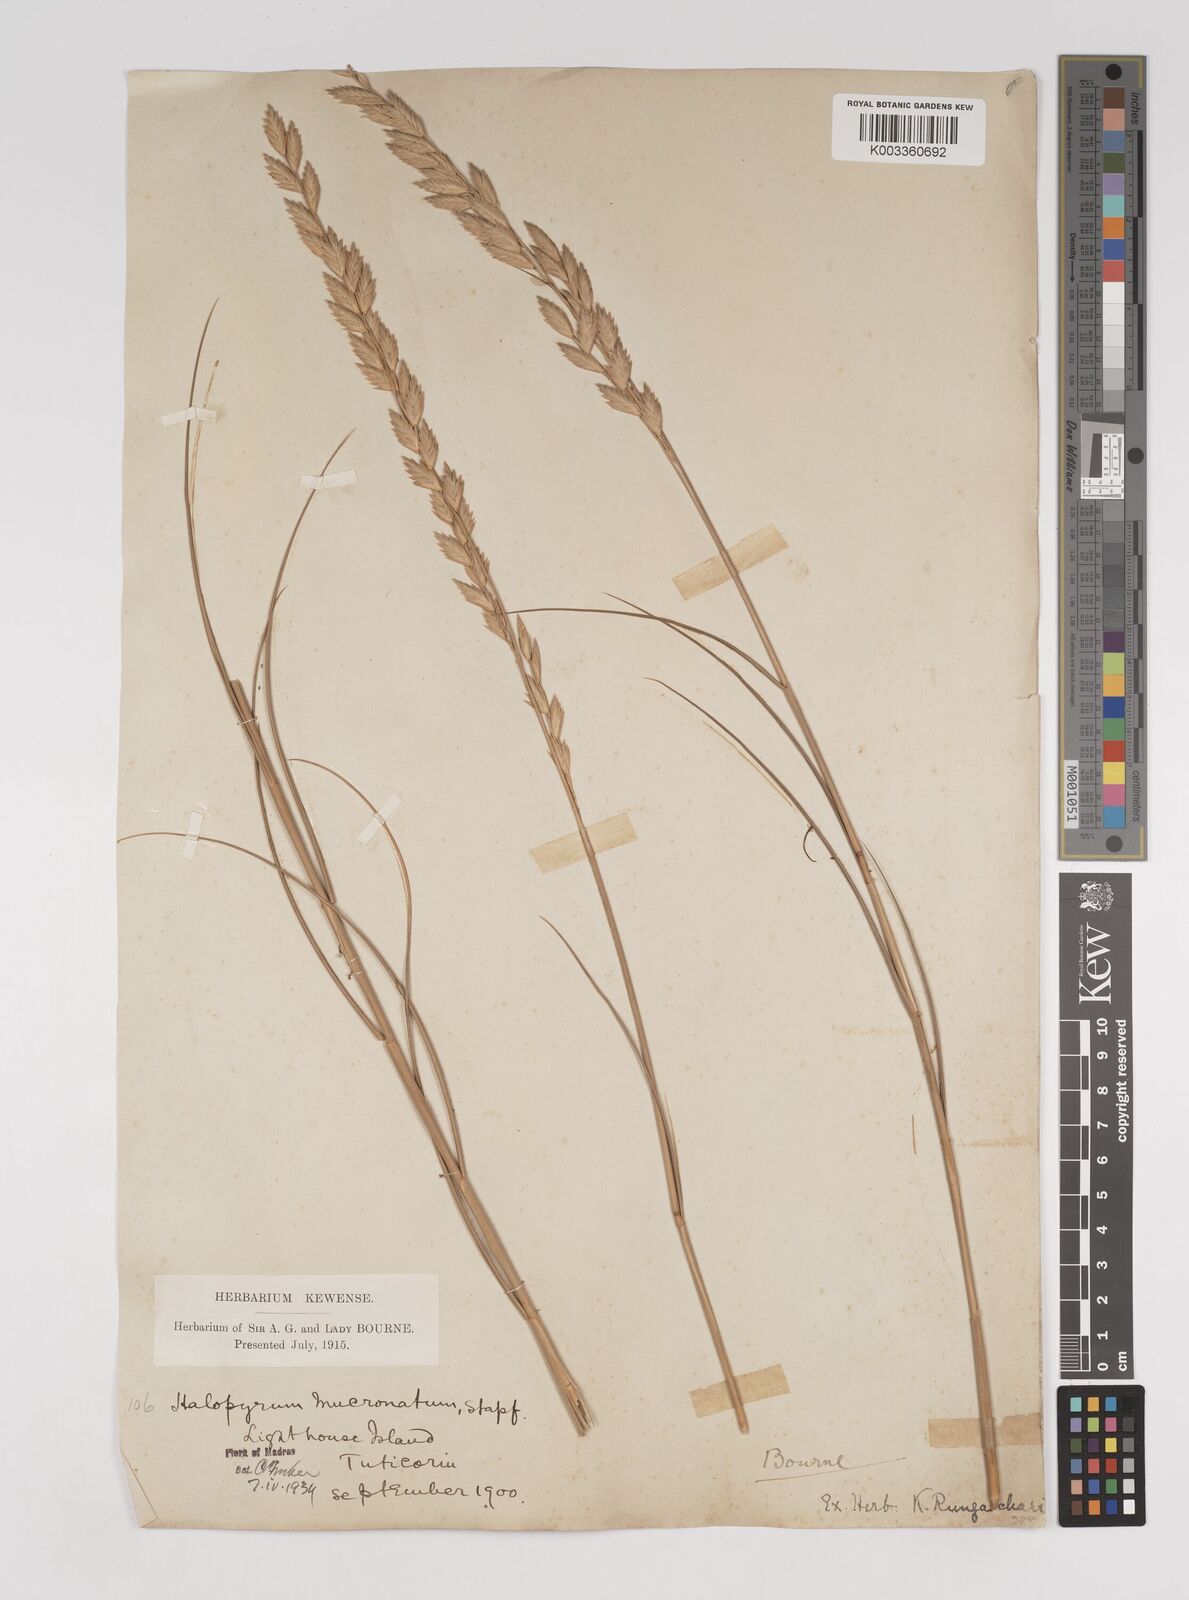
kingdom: Plantae
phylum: Tracheophyta
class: Liliopsida
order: Poales
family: Poaceae
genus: Halopyrum
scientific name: Halopyrum mucronatum
